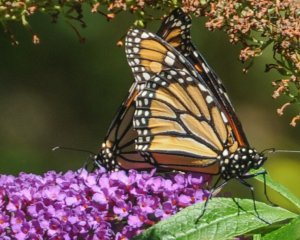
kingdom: Animalia
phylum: Arthropoda
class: Insecta
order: Lepidoptera
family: Nymphalidae
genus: Danaus
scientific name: Danaus plexippus
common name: Monarch
